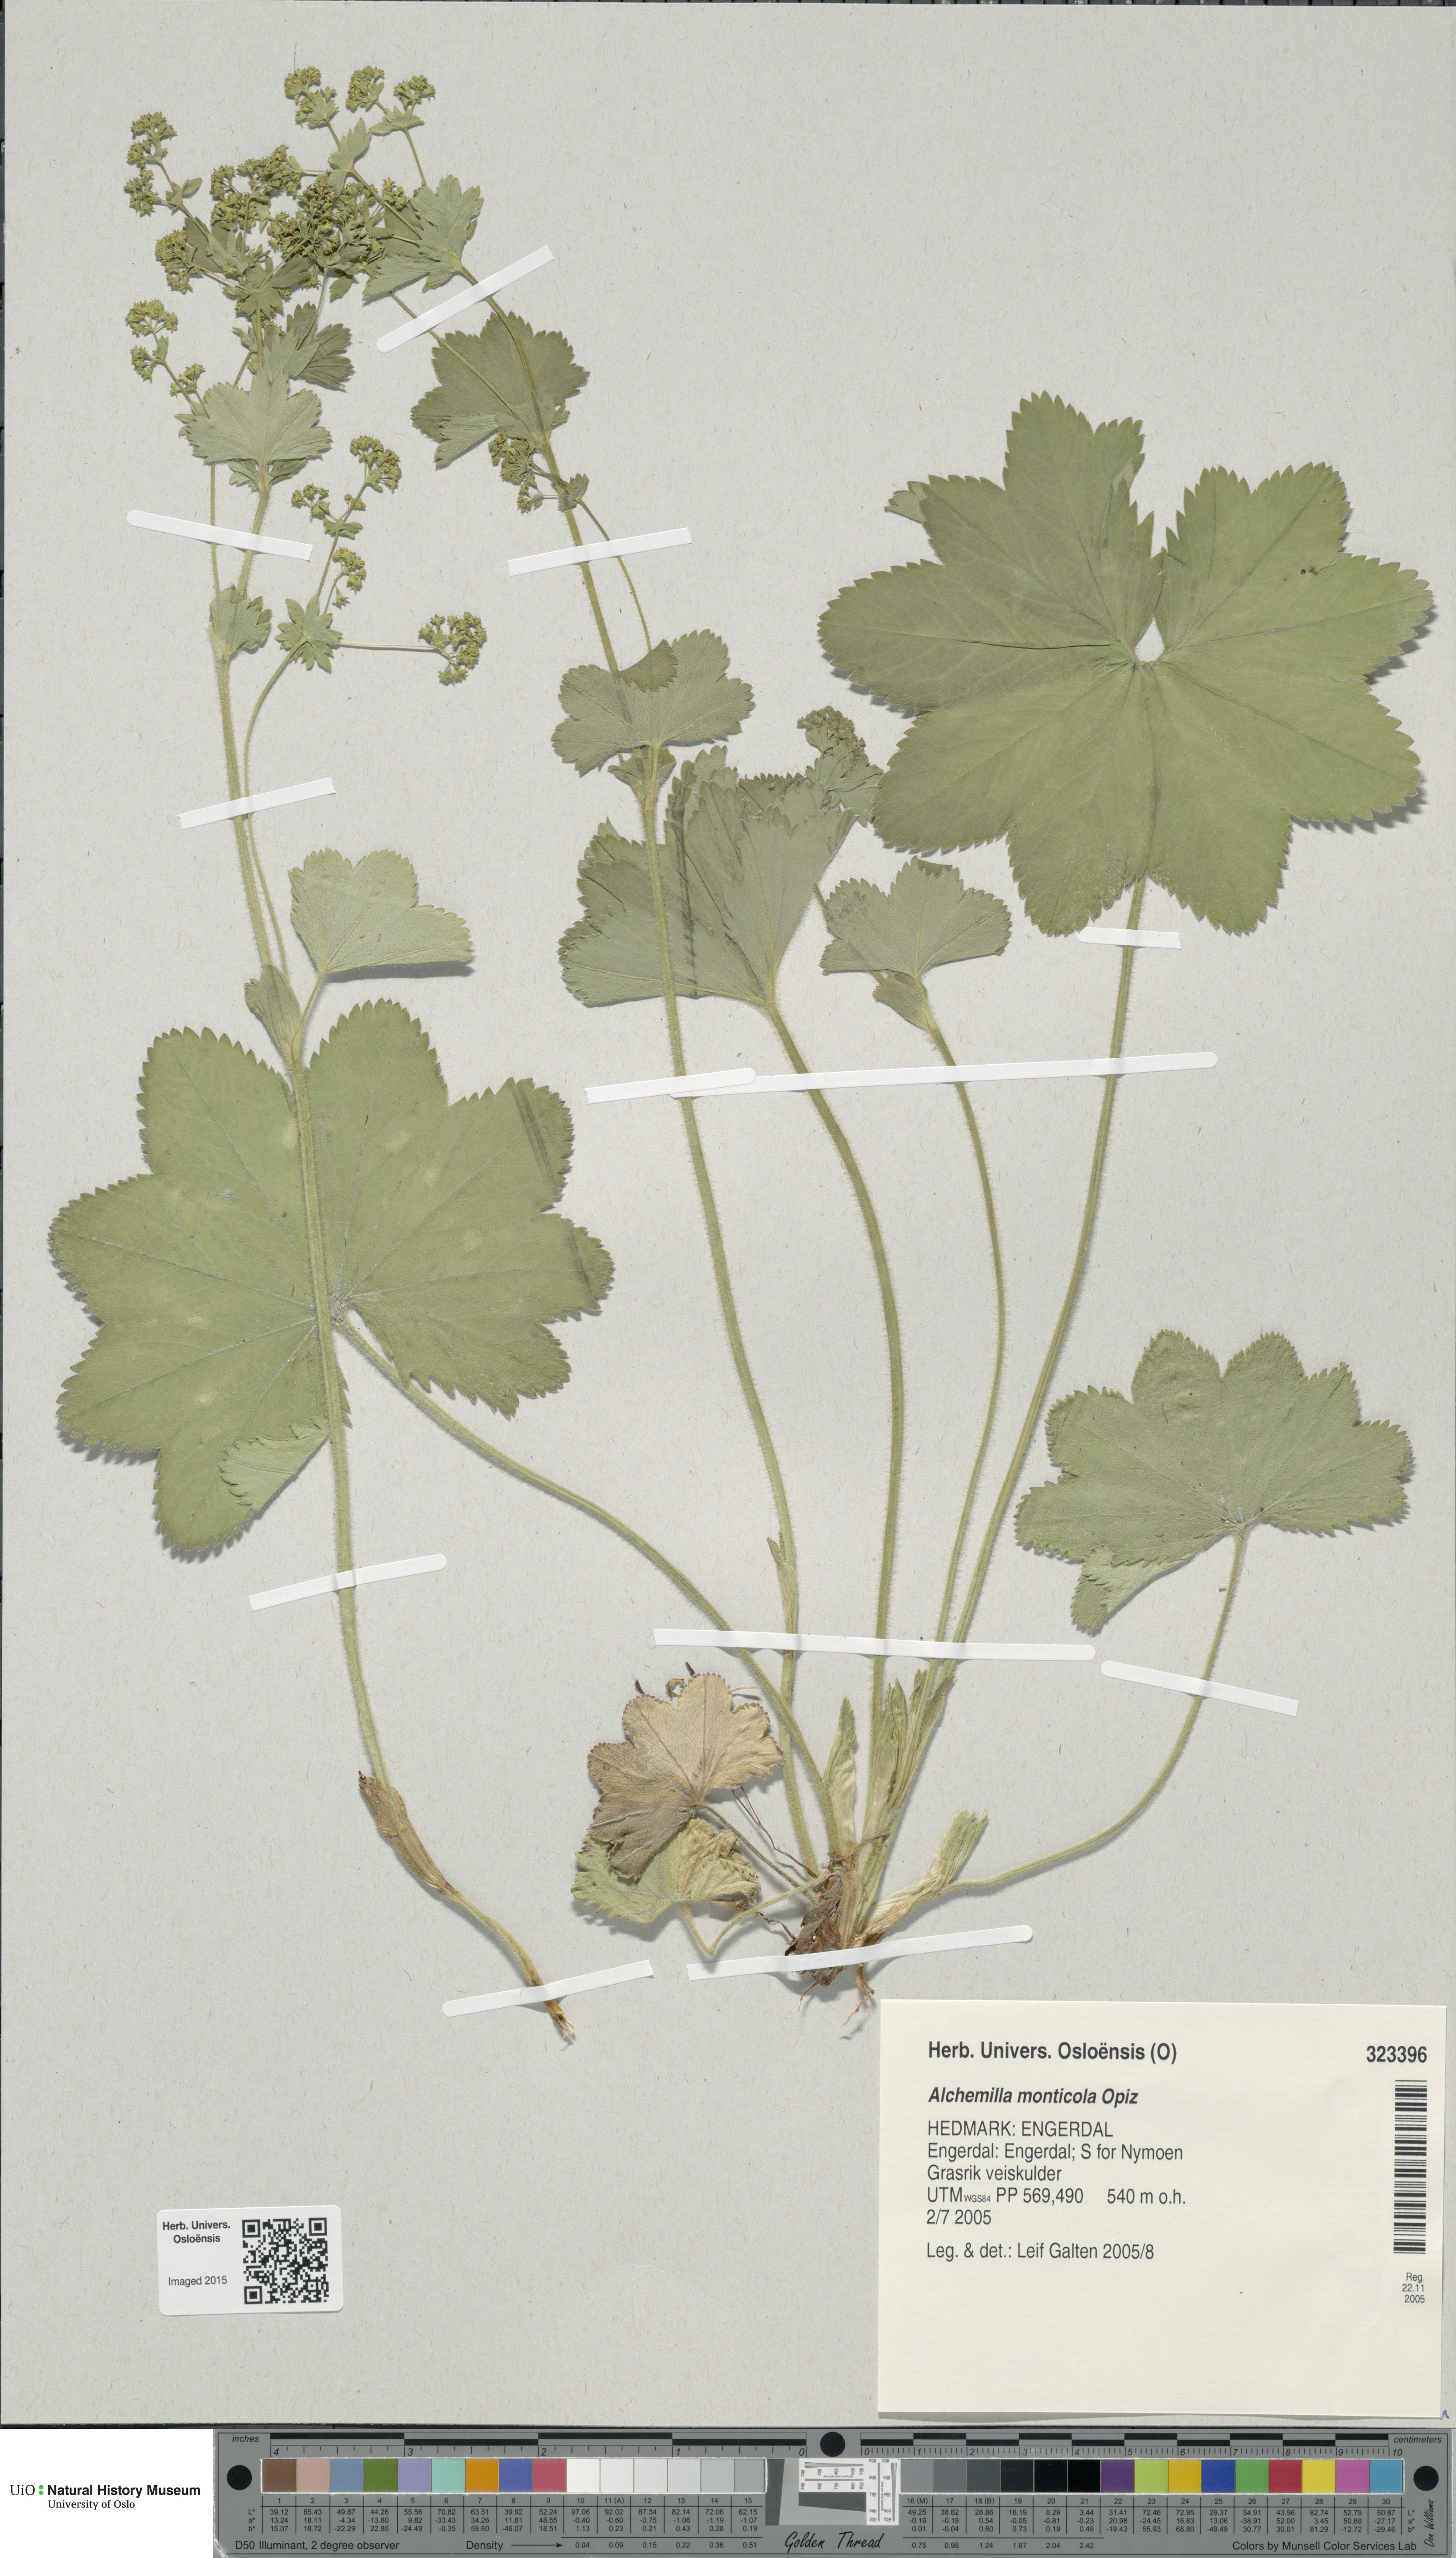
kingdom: Plantae
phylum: Tracheophyta
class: Magnoliopsida
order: Rosales
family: Rosaceae
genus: Alchemilla
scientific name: Alchemilla monticola
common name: Hairy lady's mantle
